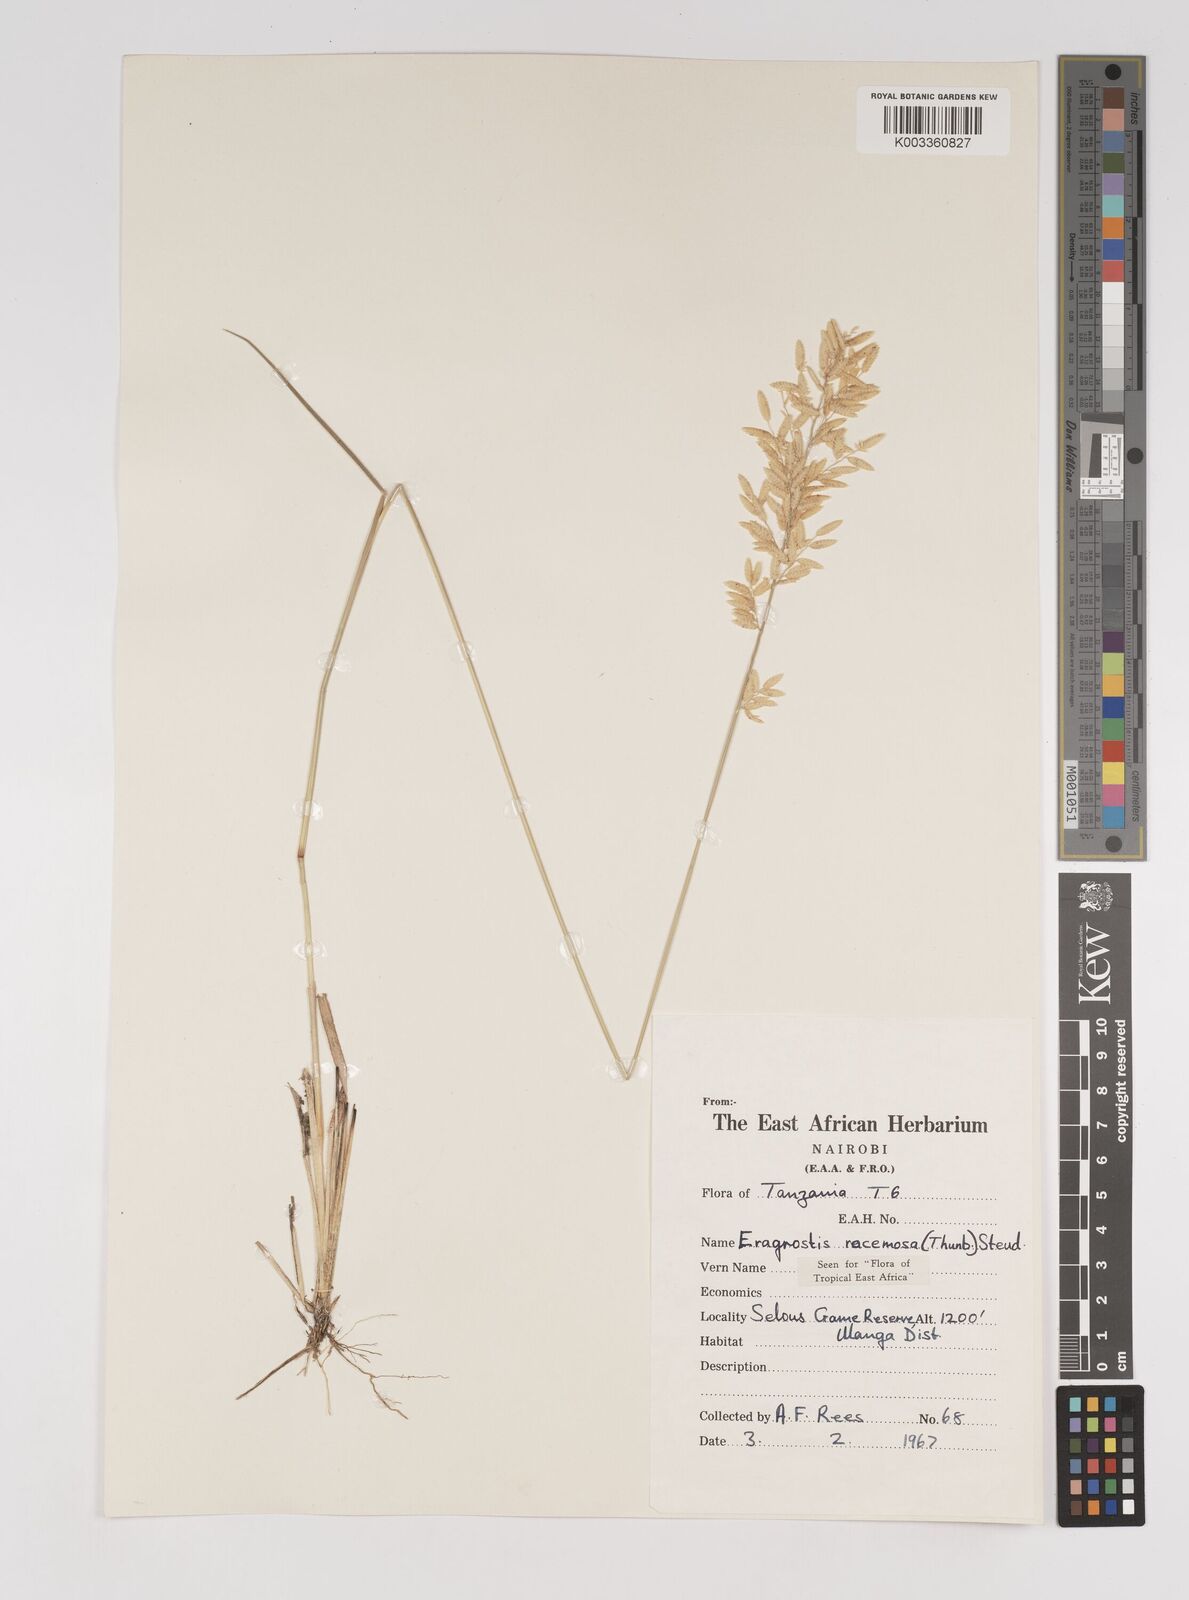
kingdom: Plantae
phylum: Tracheophyta
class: Liliopsida
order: Poales
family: Poaceae
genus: Eragrostis
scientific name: Eragrostis racemosa
